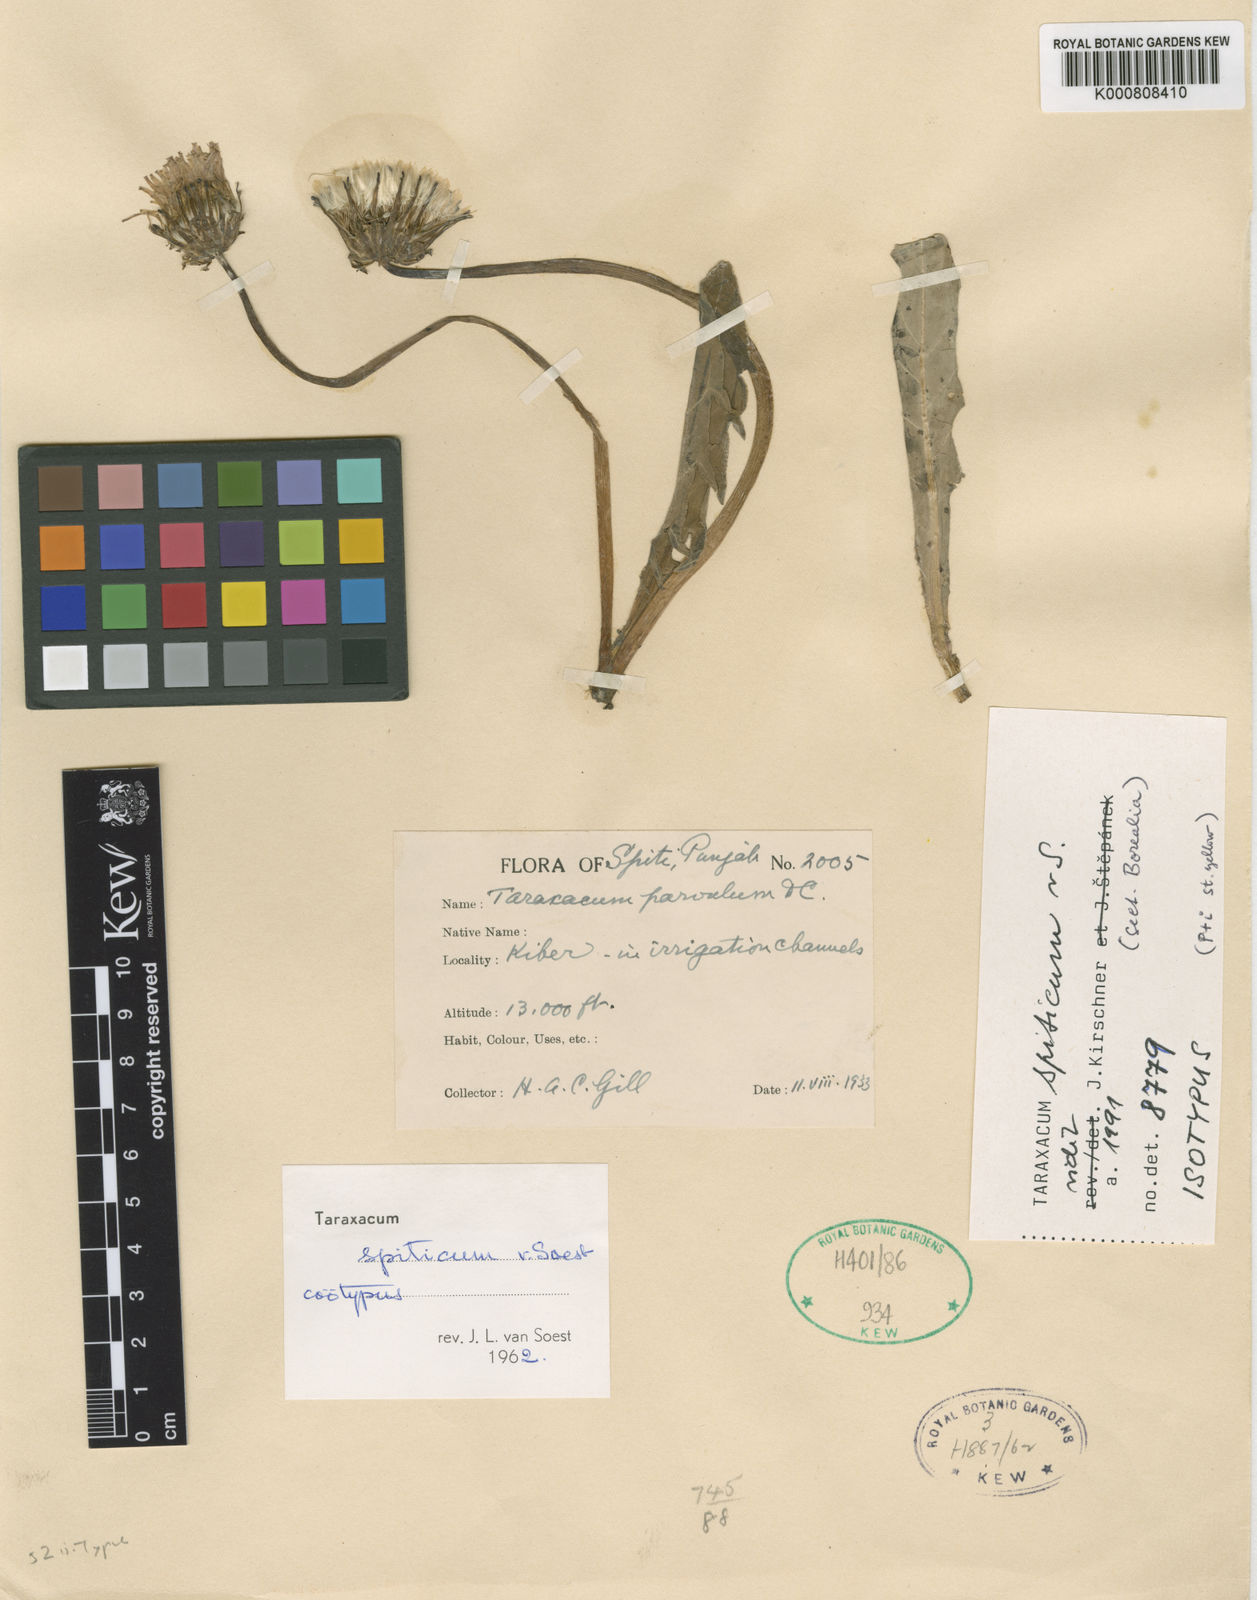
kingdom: Plantae
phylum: Tracheophyta
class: Magnoliopsida
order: Asterales
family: Asteraceae
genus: Taraxacum
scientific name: Taraxacum spiticum
